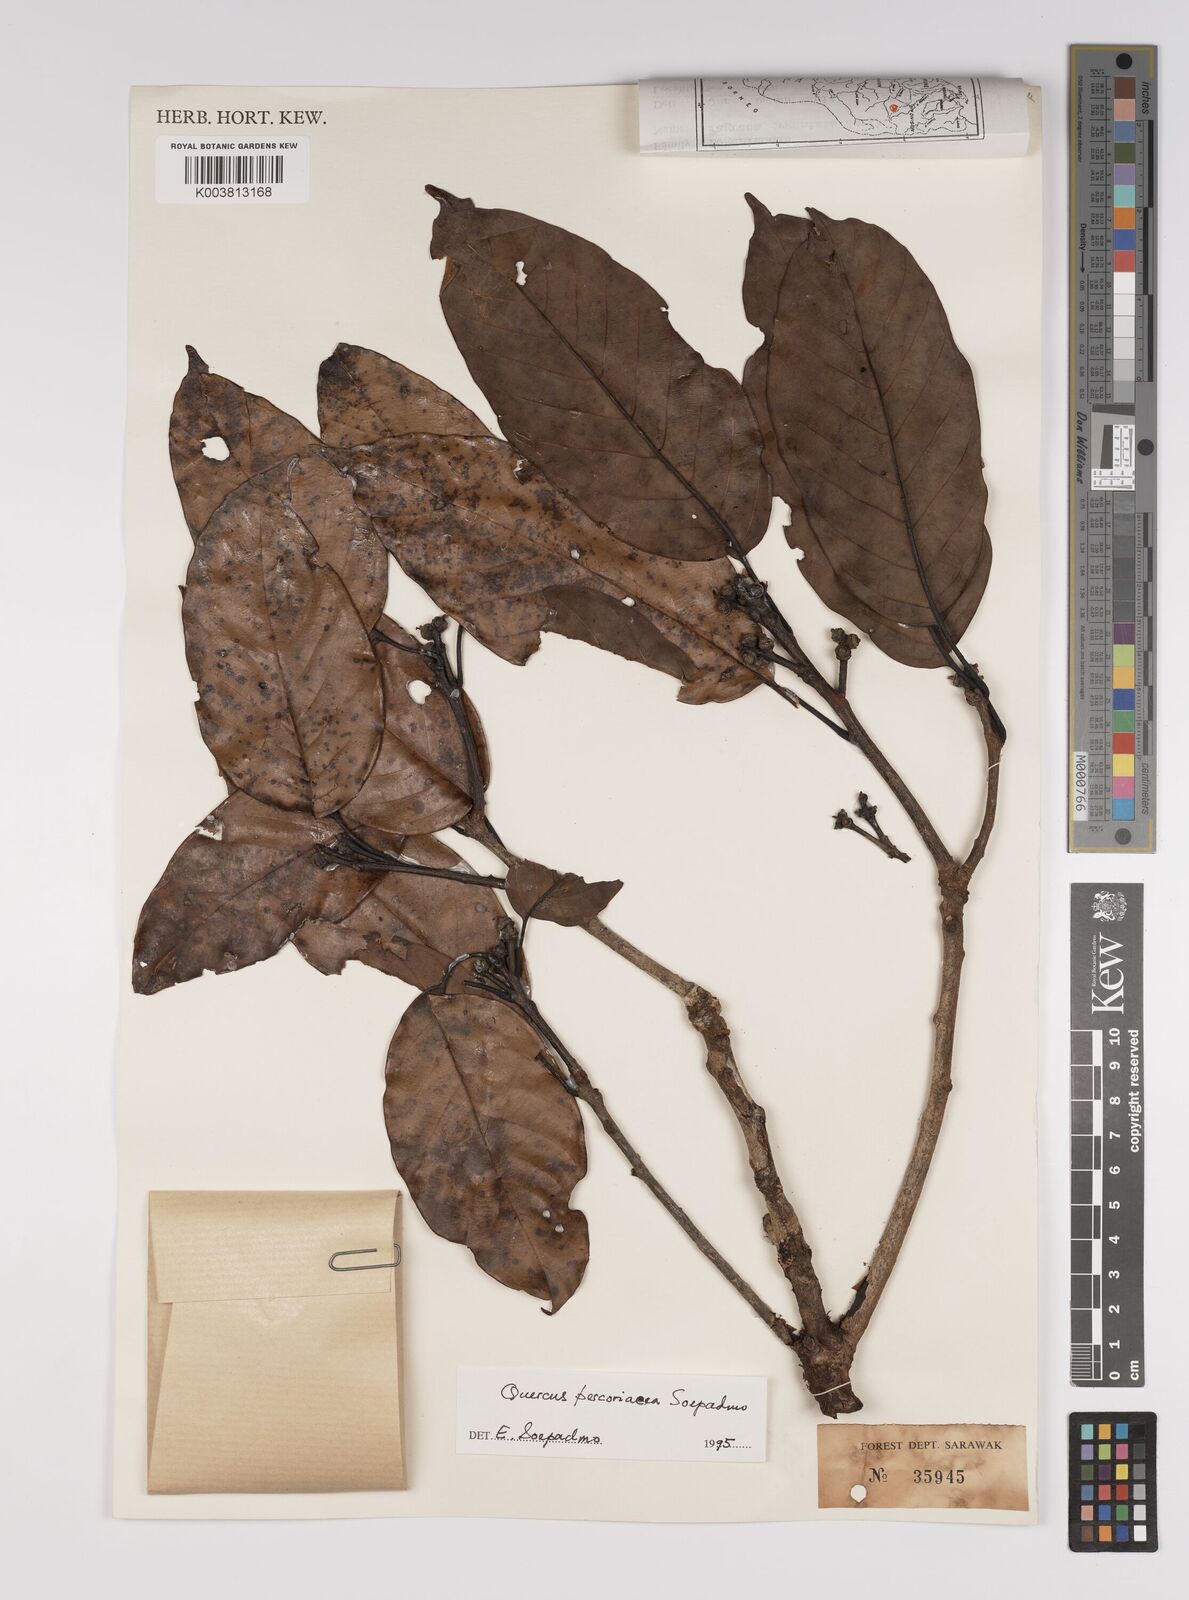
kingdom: Plantae
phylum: Tracheophyta
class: Magnoliopsida
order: Fagales
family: Fagaceae
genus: Quercus
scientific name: Quercus percoriacea
